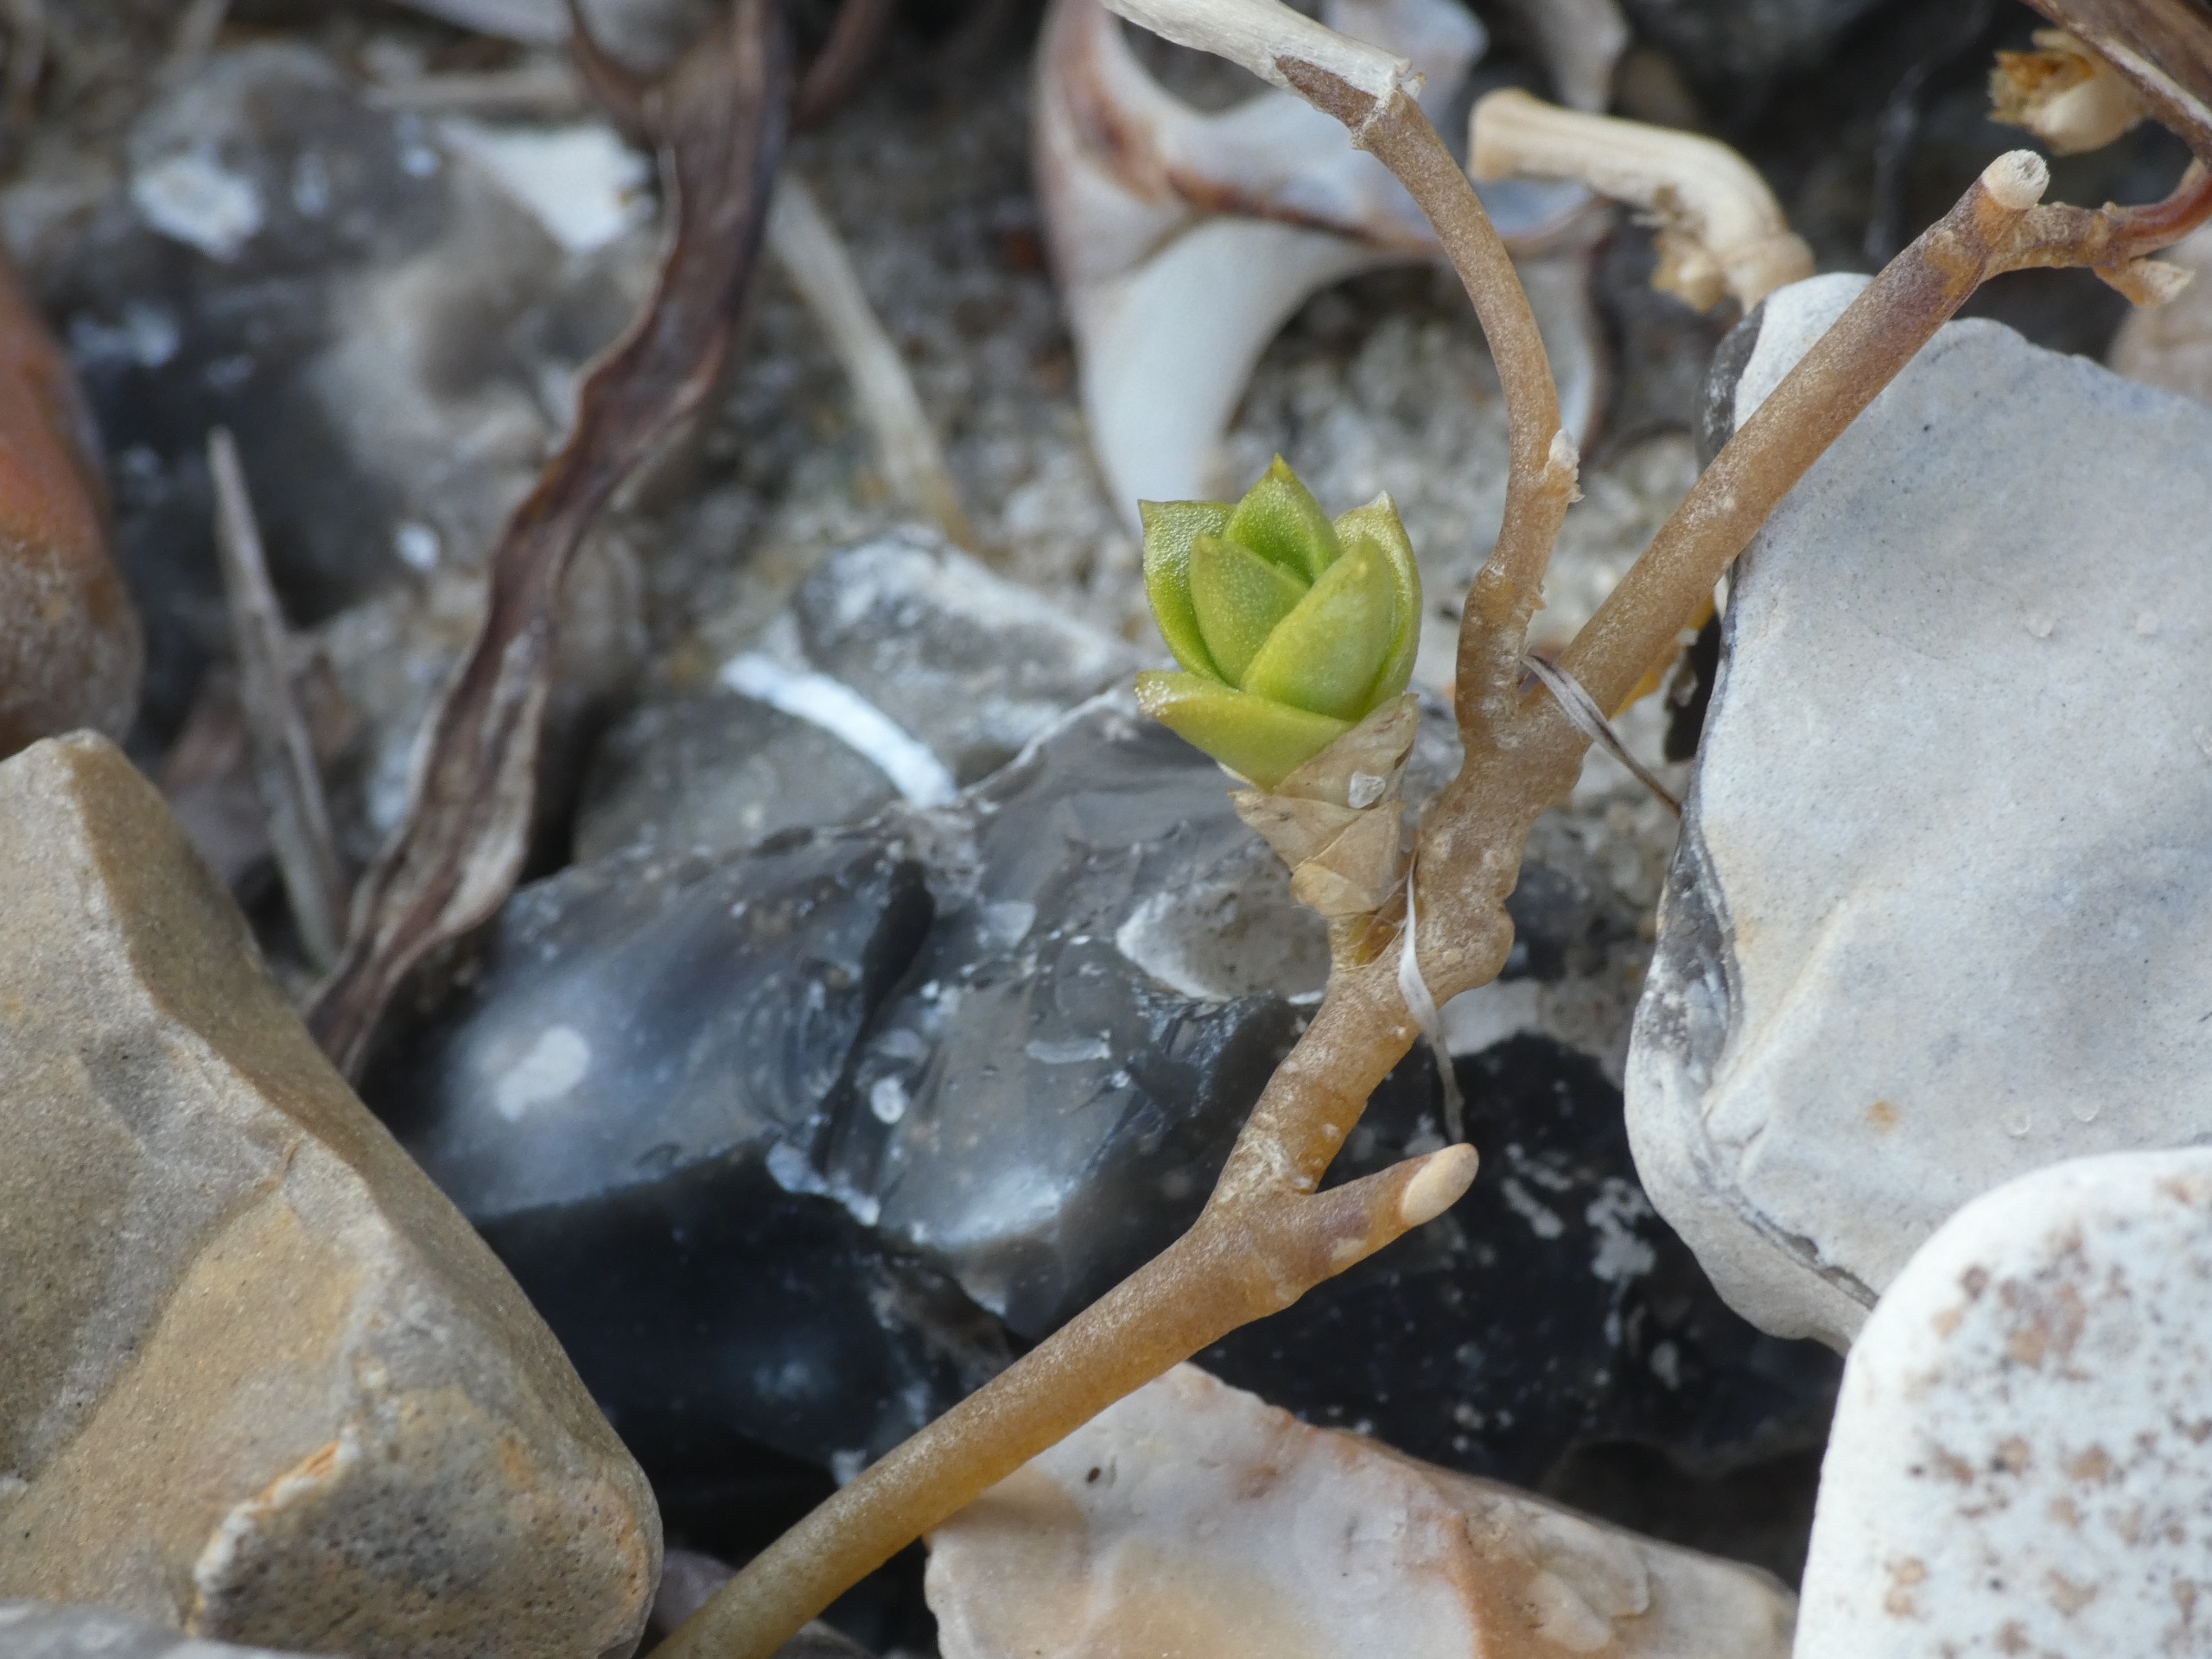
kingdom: Plantae
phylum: Tracheophyta
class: Magnoliopsida
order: Caryophyllales
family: Caryophyllaceae
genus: Honckenya
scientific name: Honckenya peploides
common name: Strandarve
